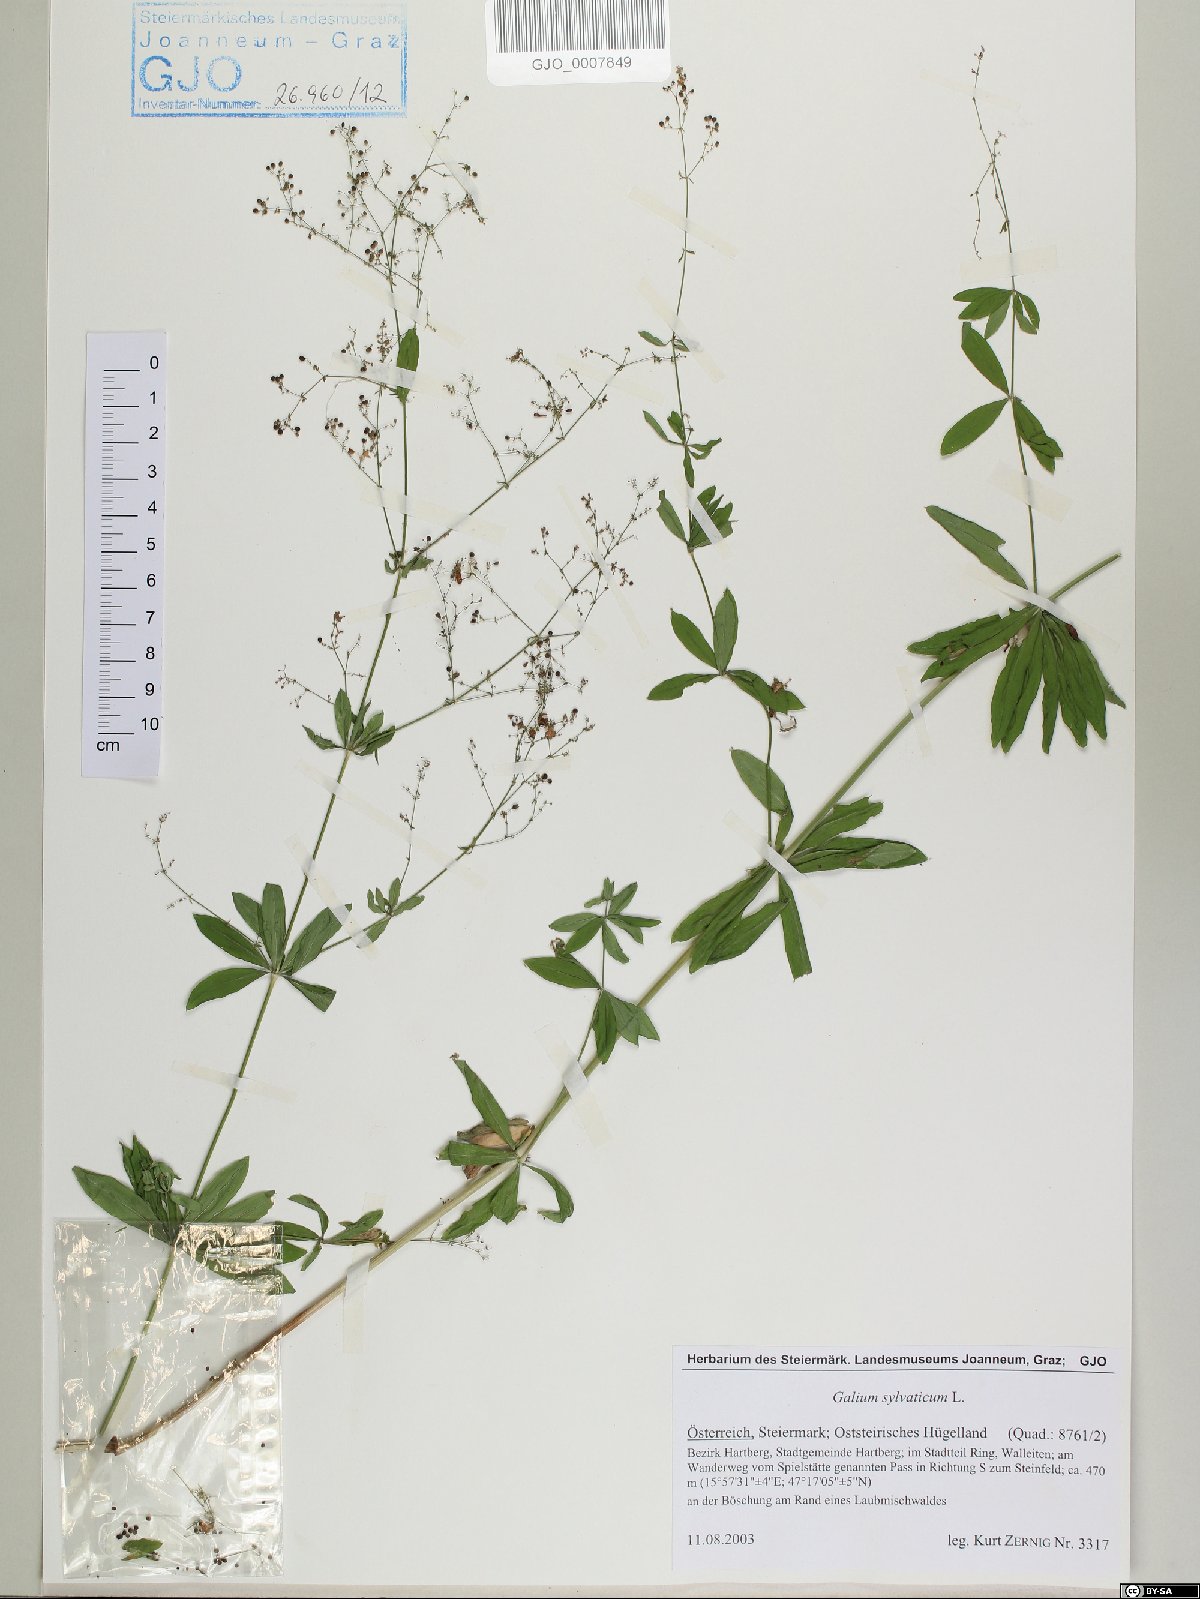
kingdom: Plantae
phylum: Tracheophyta
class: Magnoliopsida
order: Gentianales
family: Rubiaceae
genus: Galium
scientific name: Galium sylvaticum
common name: Wood bedstraw
